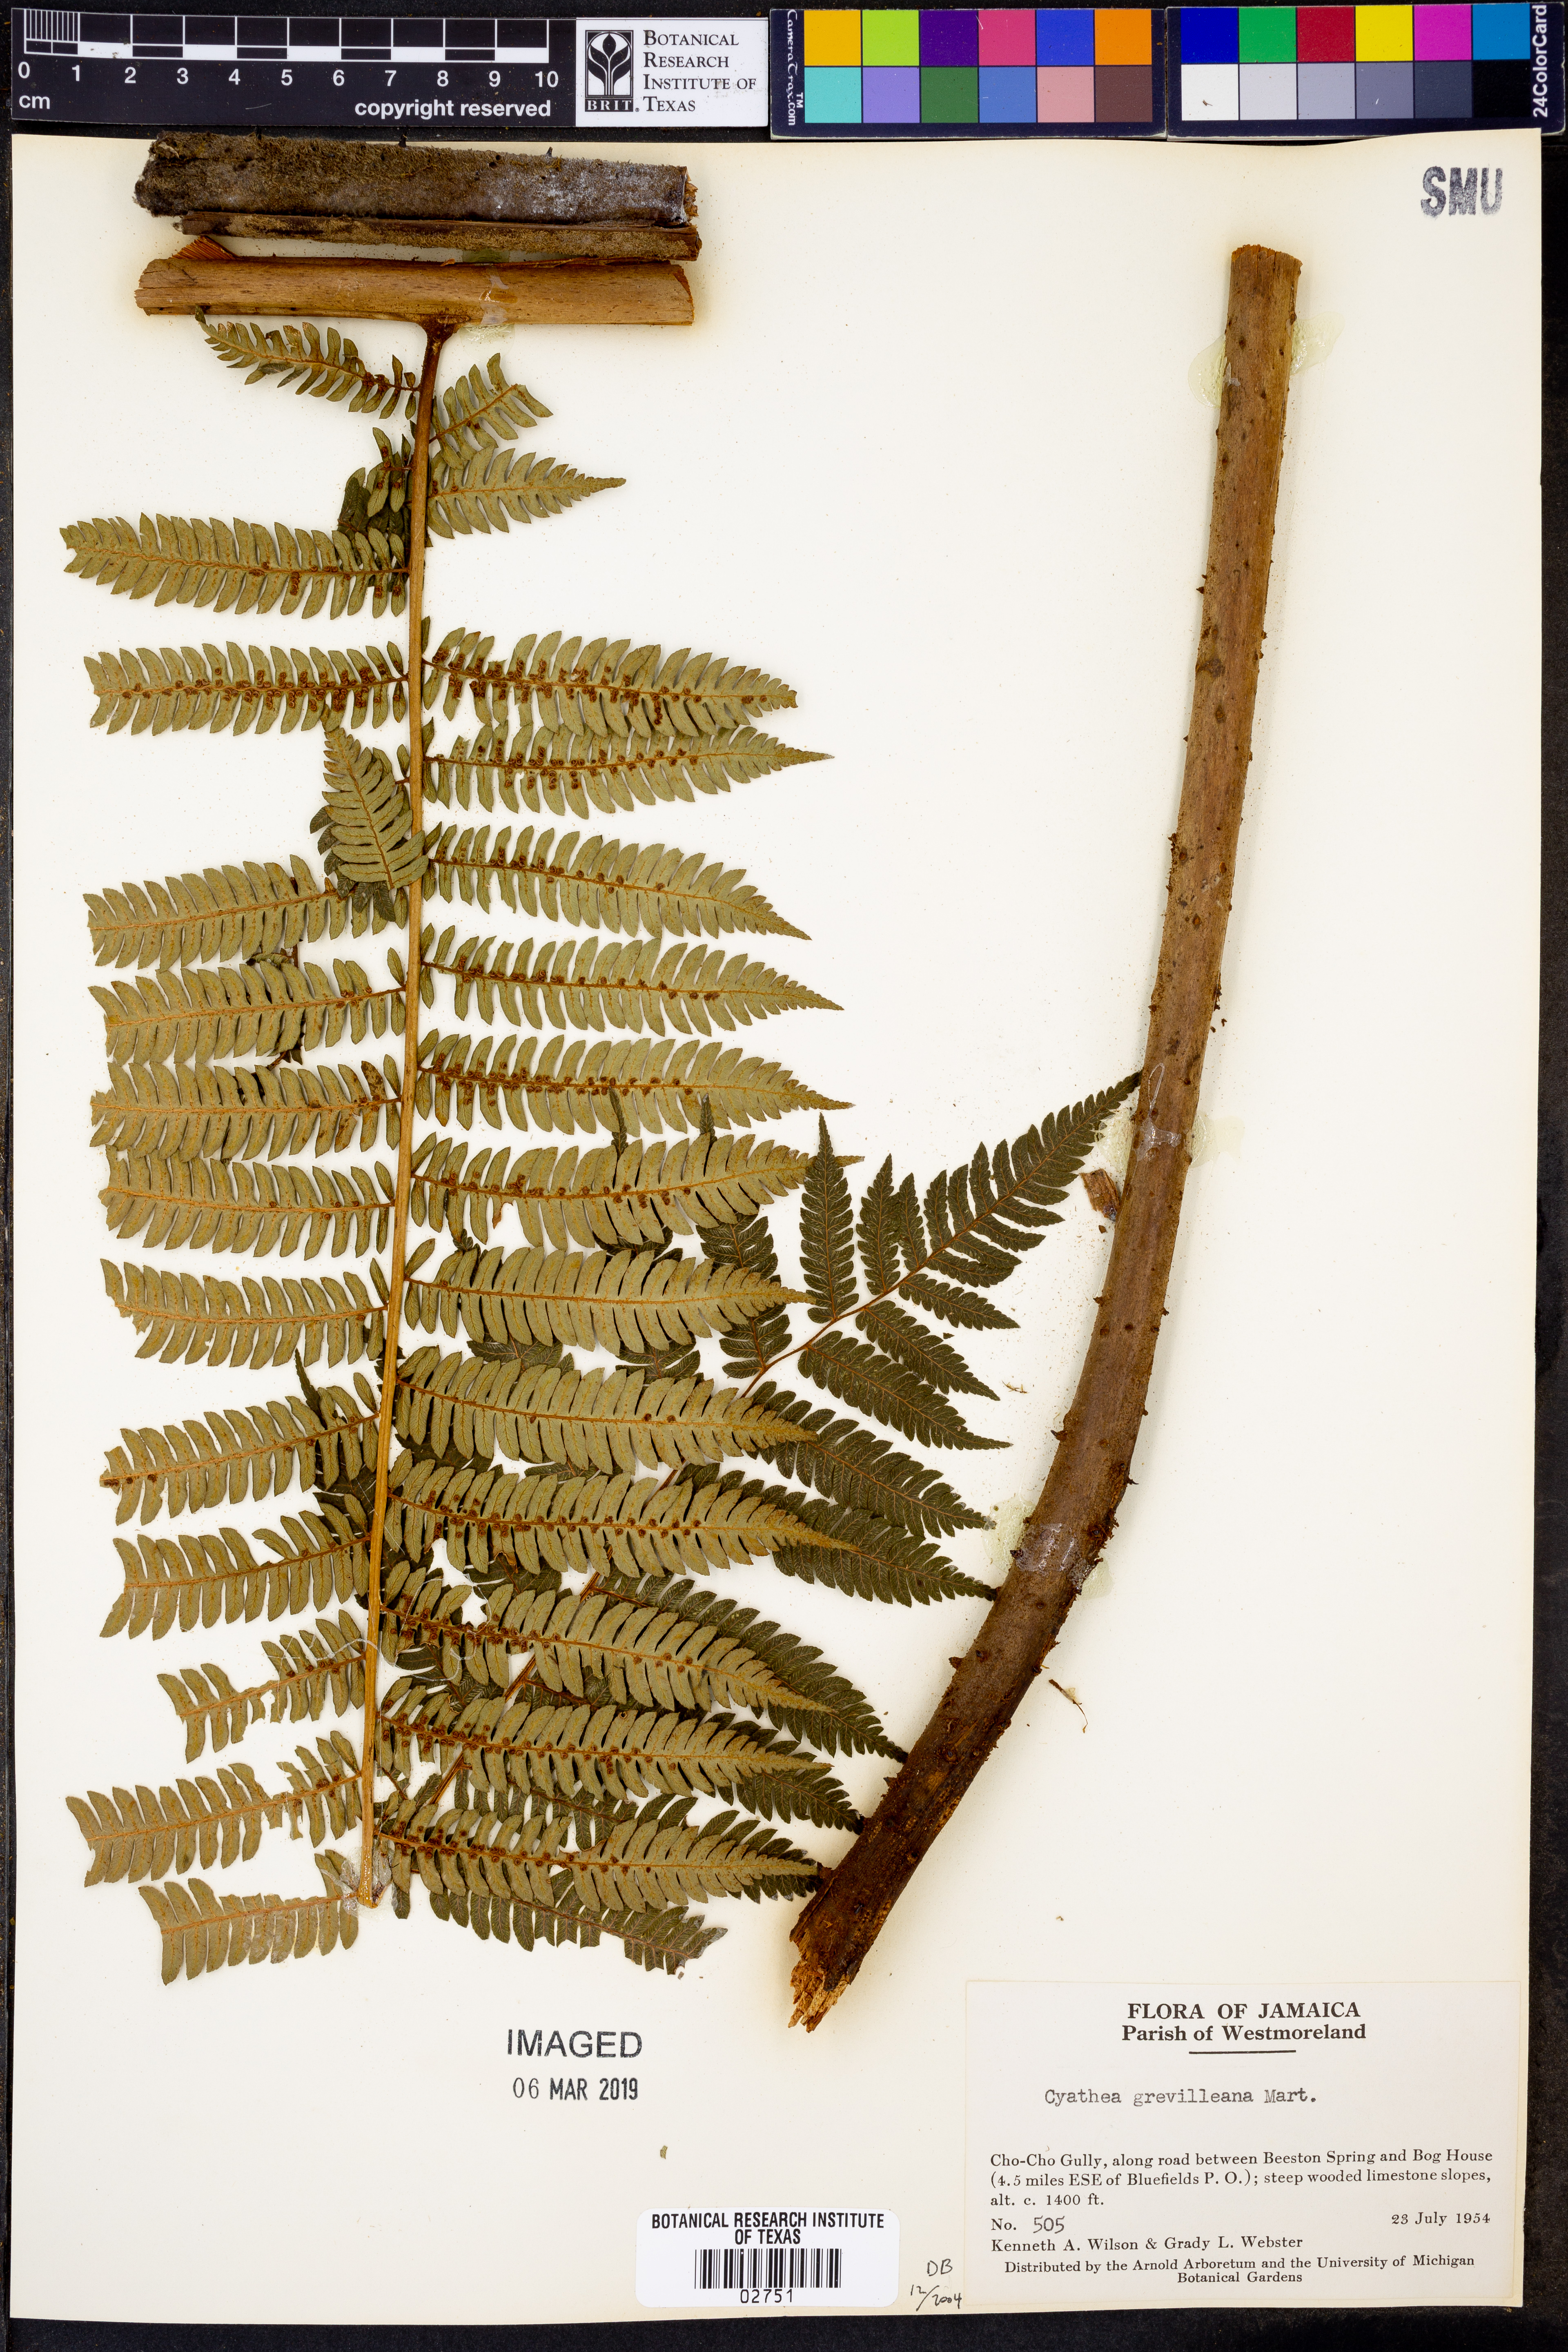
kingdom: Plantae
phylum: Tracheophyta
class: Polypodiopsida
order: Cyatheales
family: Cyatheaceae
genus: Alsophila
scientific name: Alsophila grevilleana
